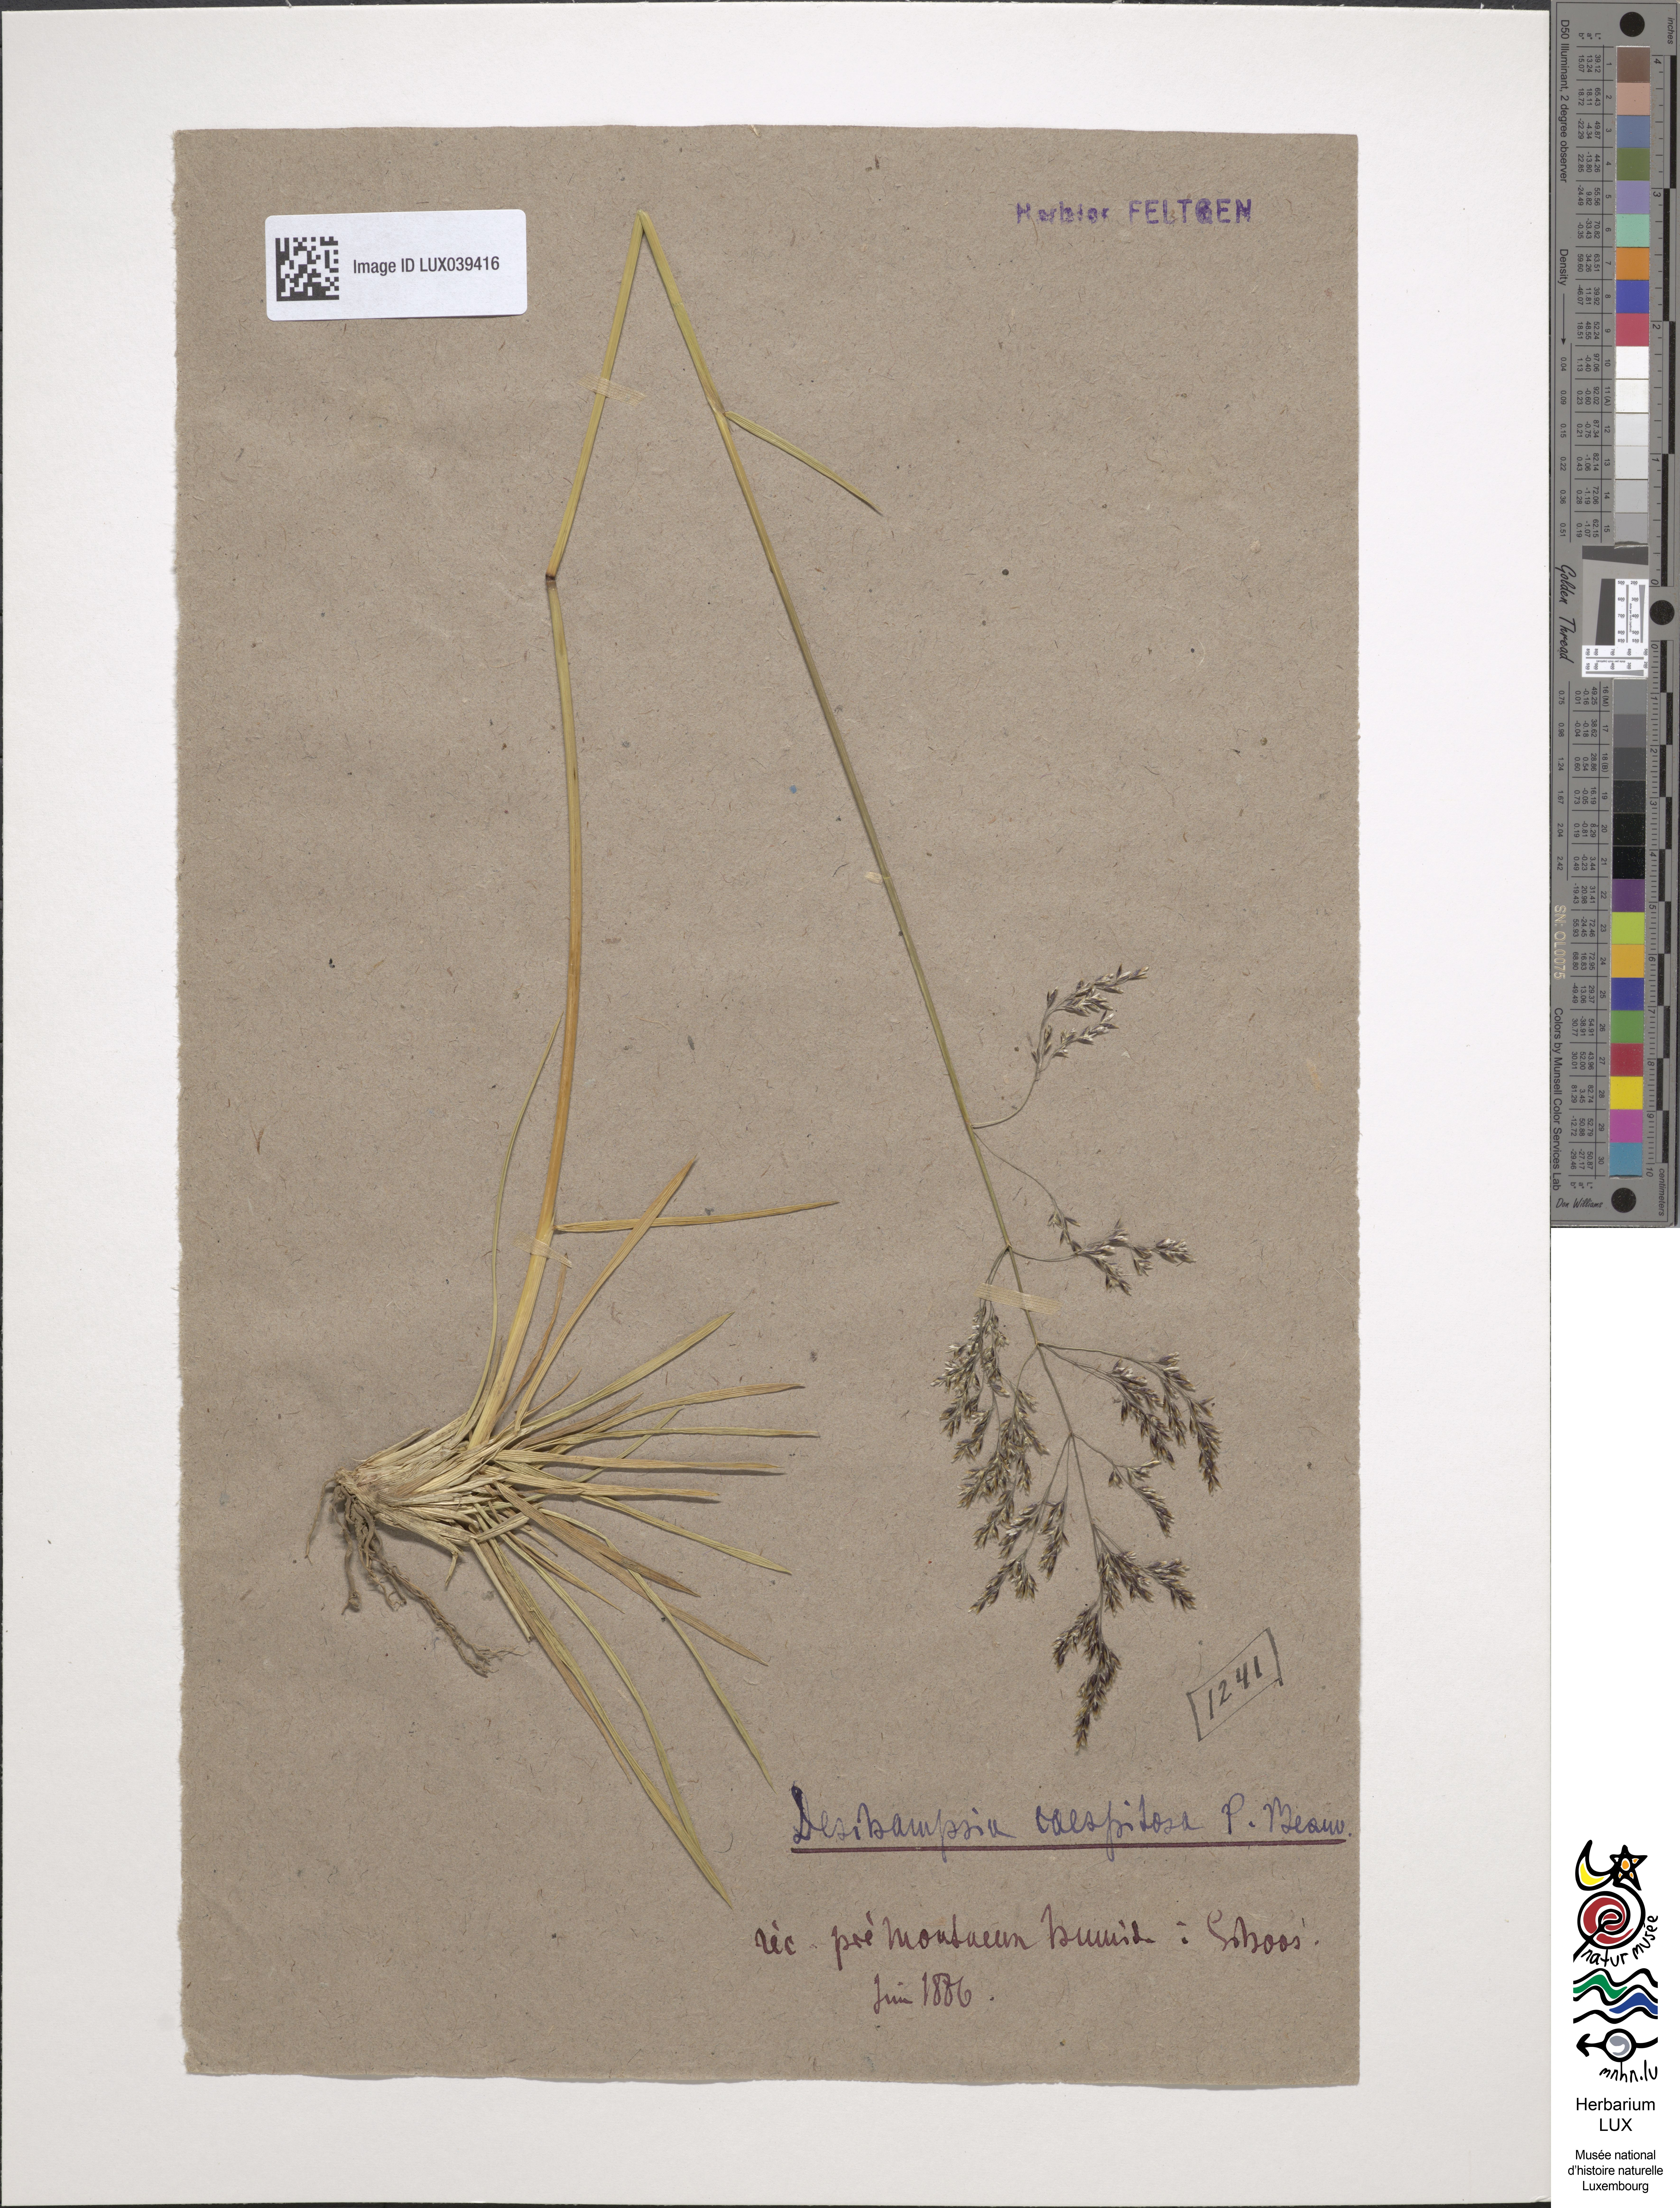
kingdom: Plantae
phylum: Tracheophyta
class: Liliopsida
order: Poales
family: Poaceae
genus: Deschampsia
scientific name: Deschampsia cespitosa
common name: Tufted hair-grass
